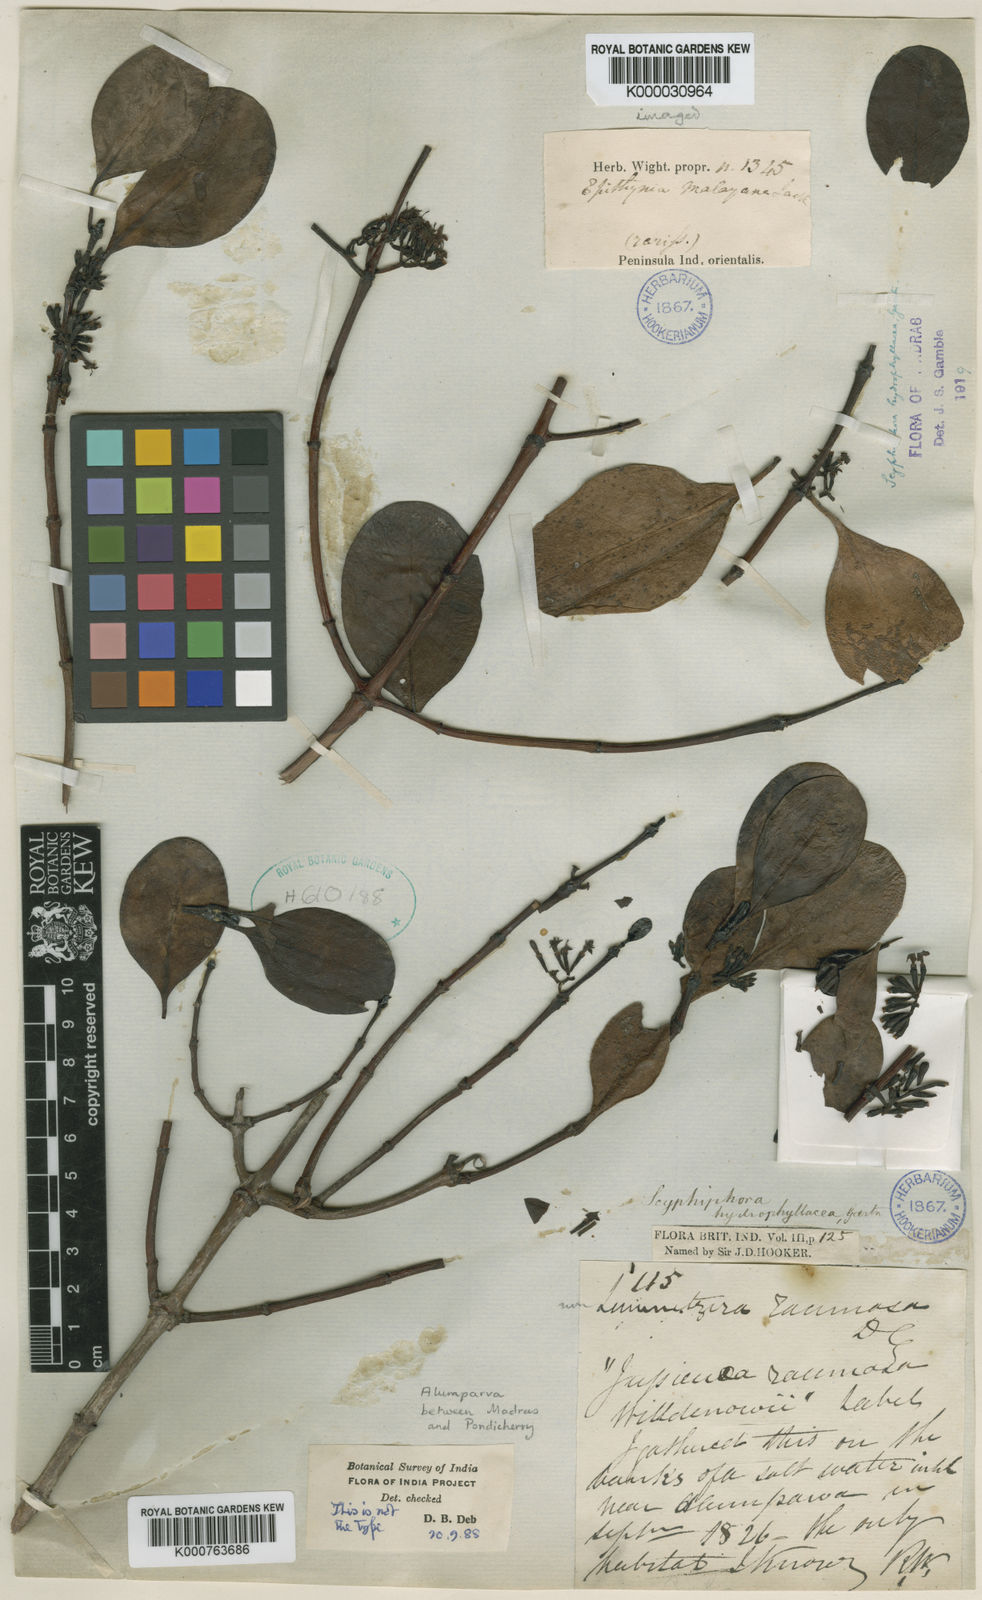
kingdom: Plantae
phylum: Tracheophyta
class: Magnoliopsida
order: Gentianales
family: Rubiaceae
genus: Scyphiphora
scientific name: Scyphiphora
